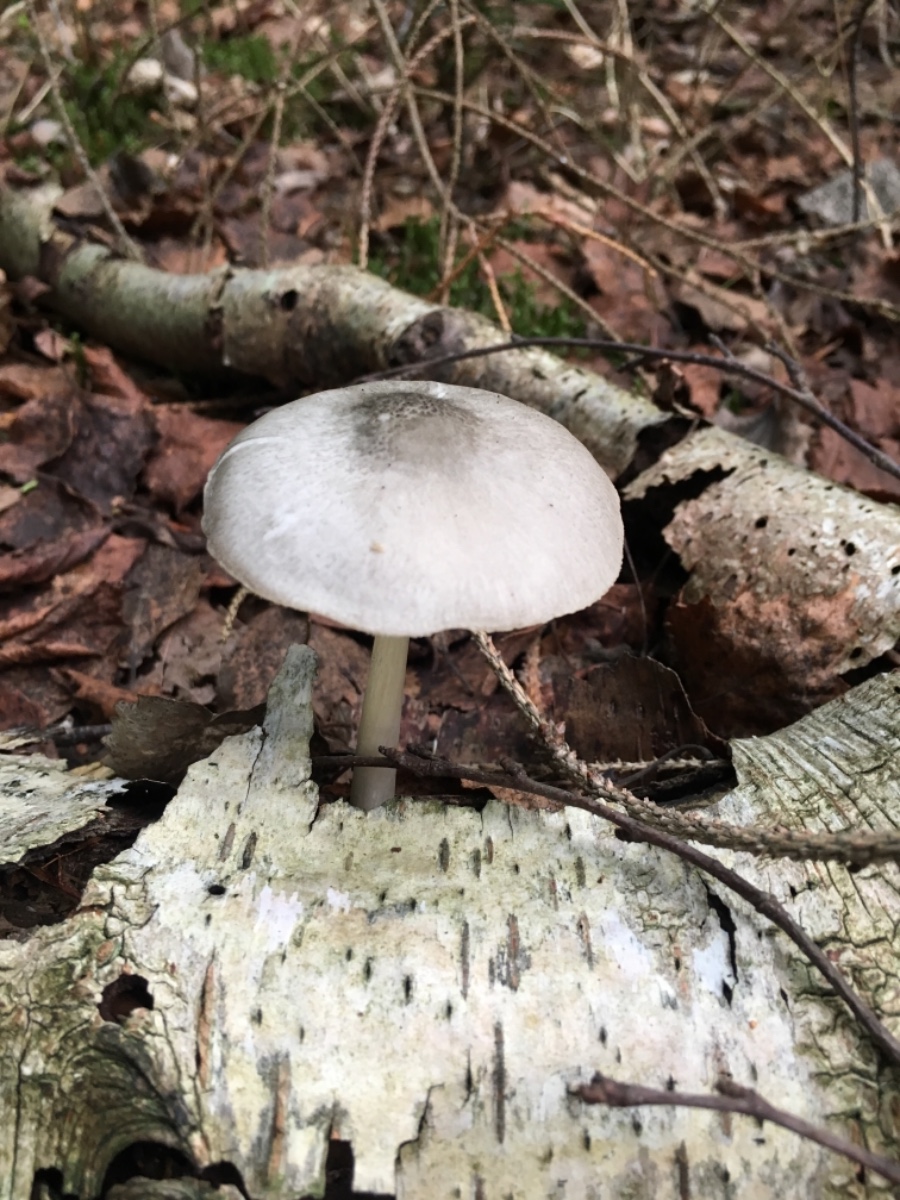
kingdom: Fungi
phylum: Basidiomycota
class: Agaricomycetes
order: Agaricales
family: Pluteaceae
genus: Pluteus
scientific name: Pluteus salicinus
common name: stiv skærmhat
